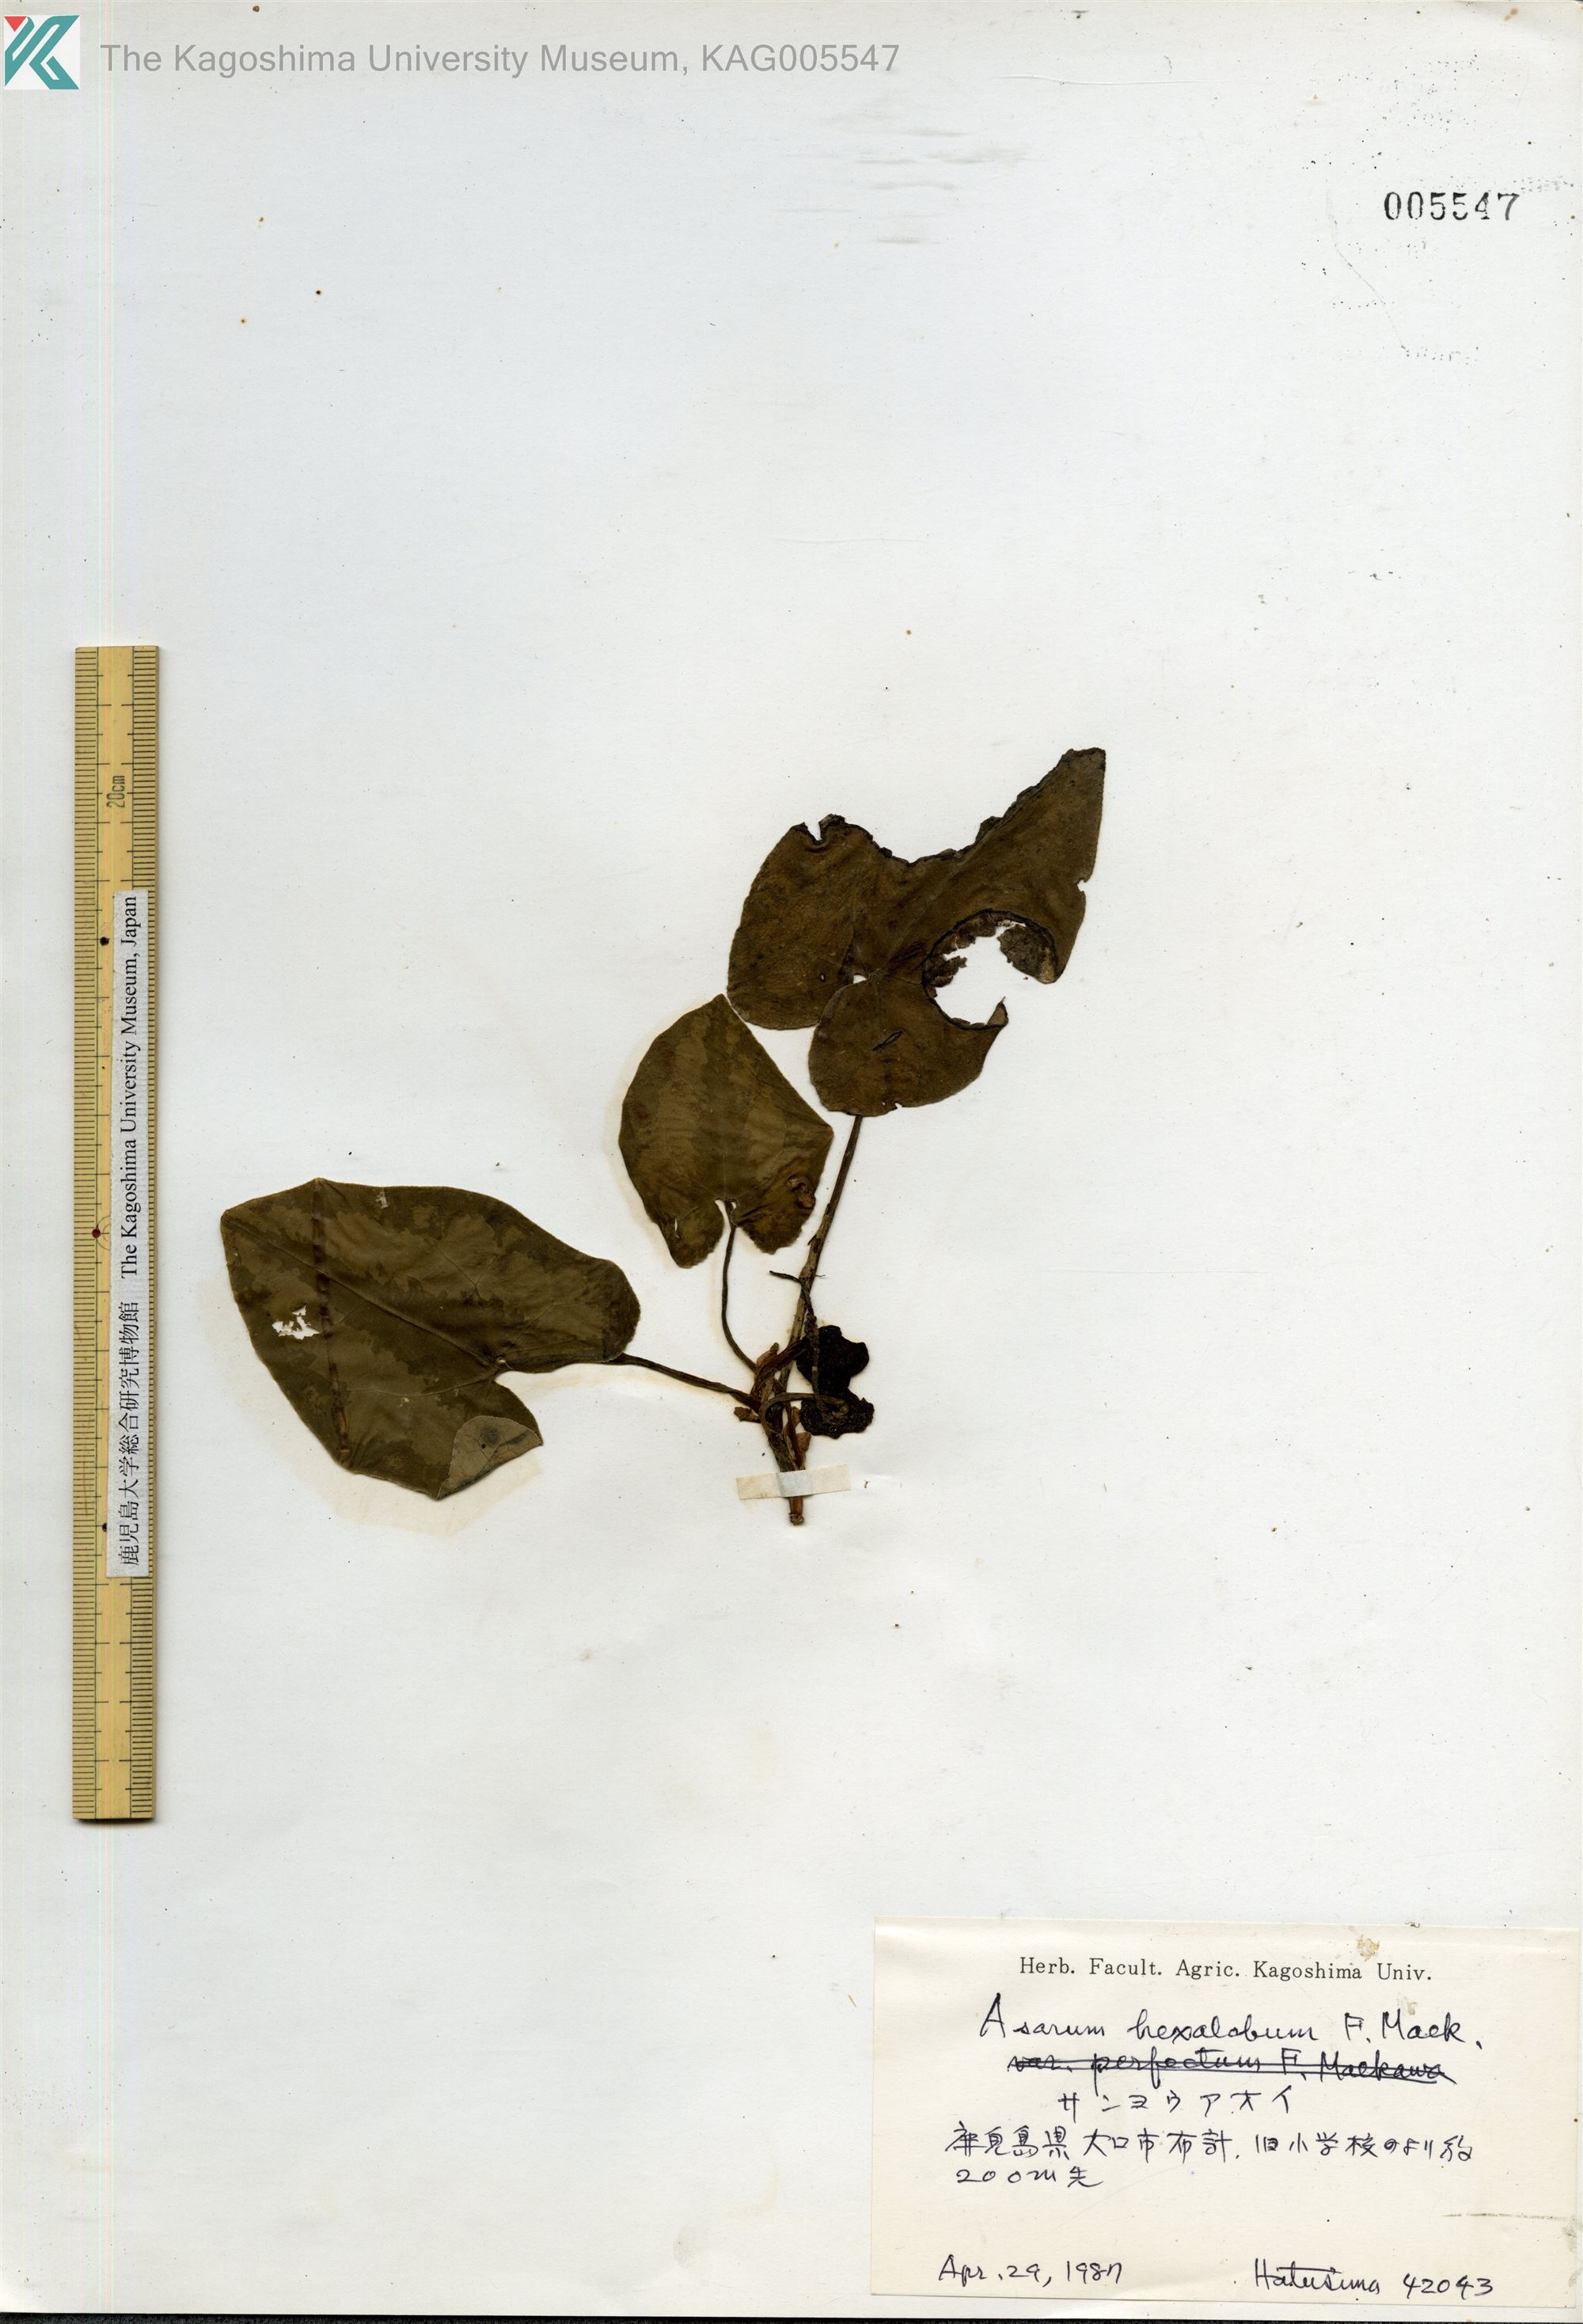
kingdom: Plantae
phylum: Tracheophyta
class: Magnoliopsida
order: Piperales
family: Aristolochiaceae
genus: Asarum
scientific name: Asarum hexalobum
